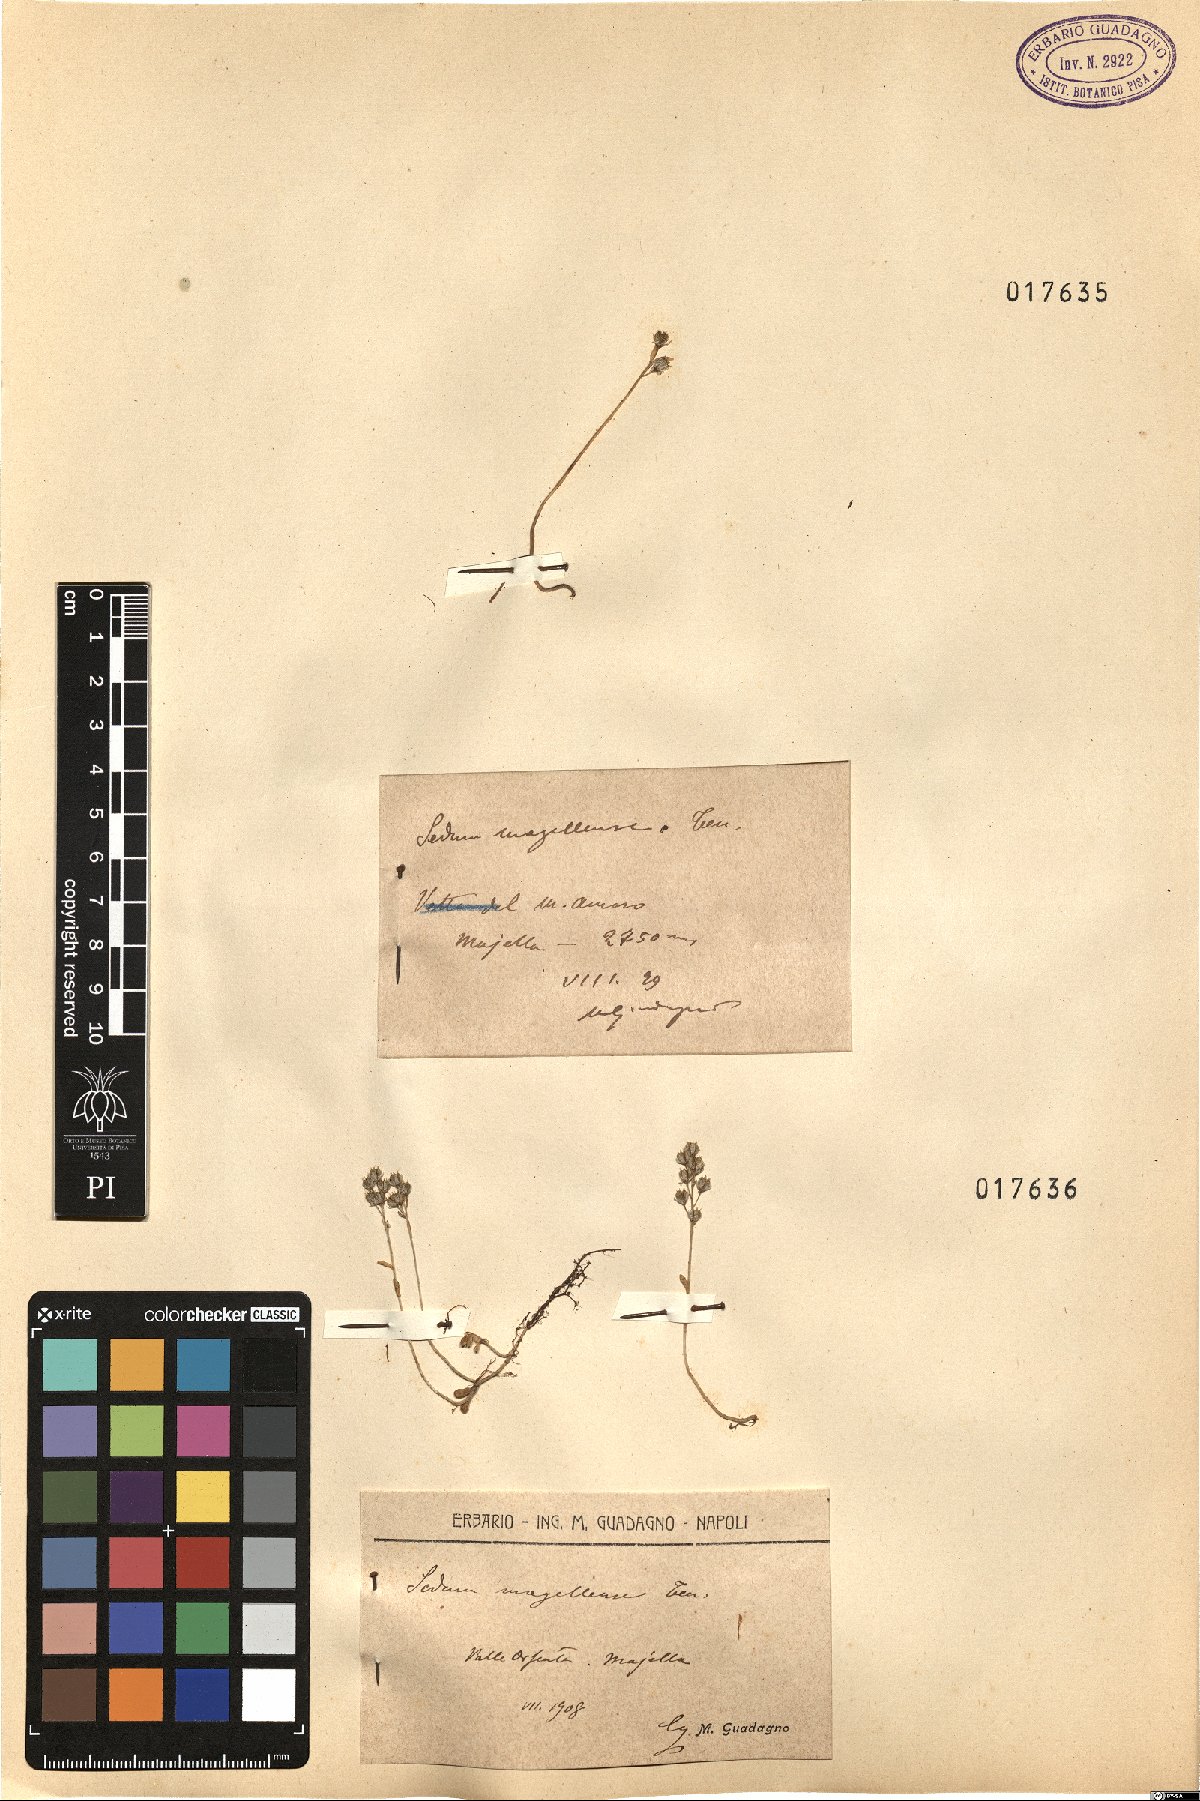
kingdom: Plantae
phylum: Tracheophyta
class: Magnoliopsida
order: Saxifragales
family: Crassulaceae
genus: Sedum
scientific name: Sedum magellense
